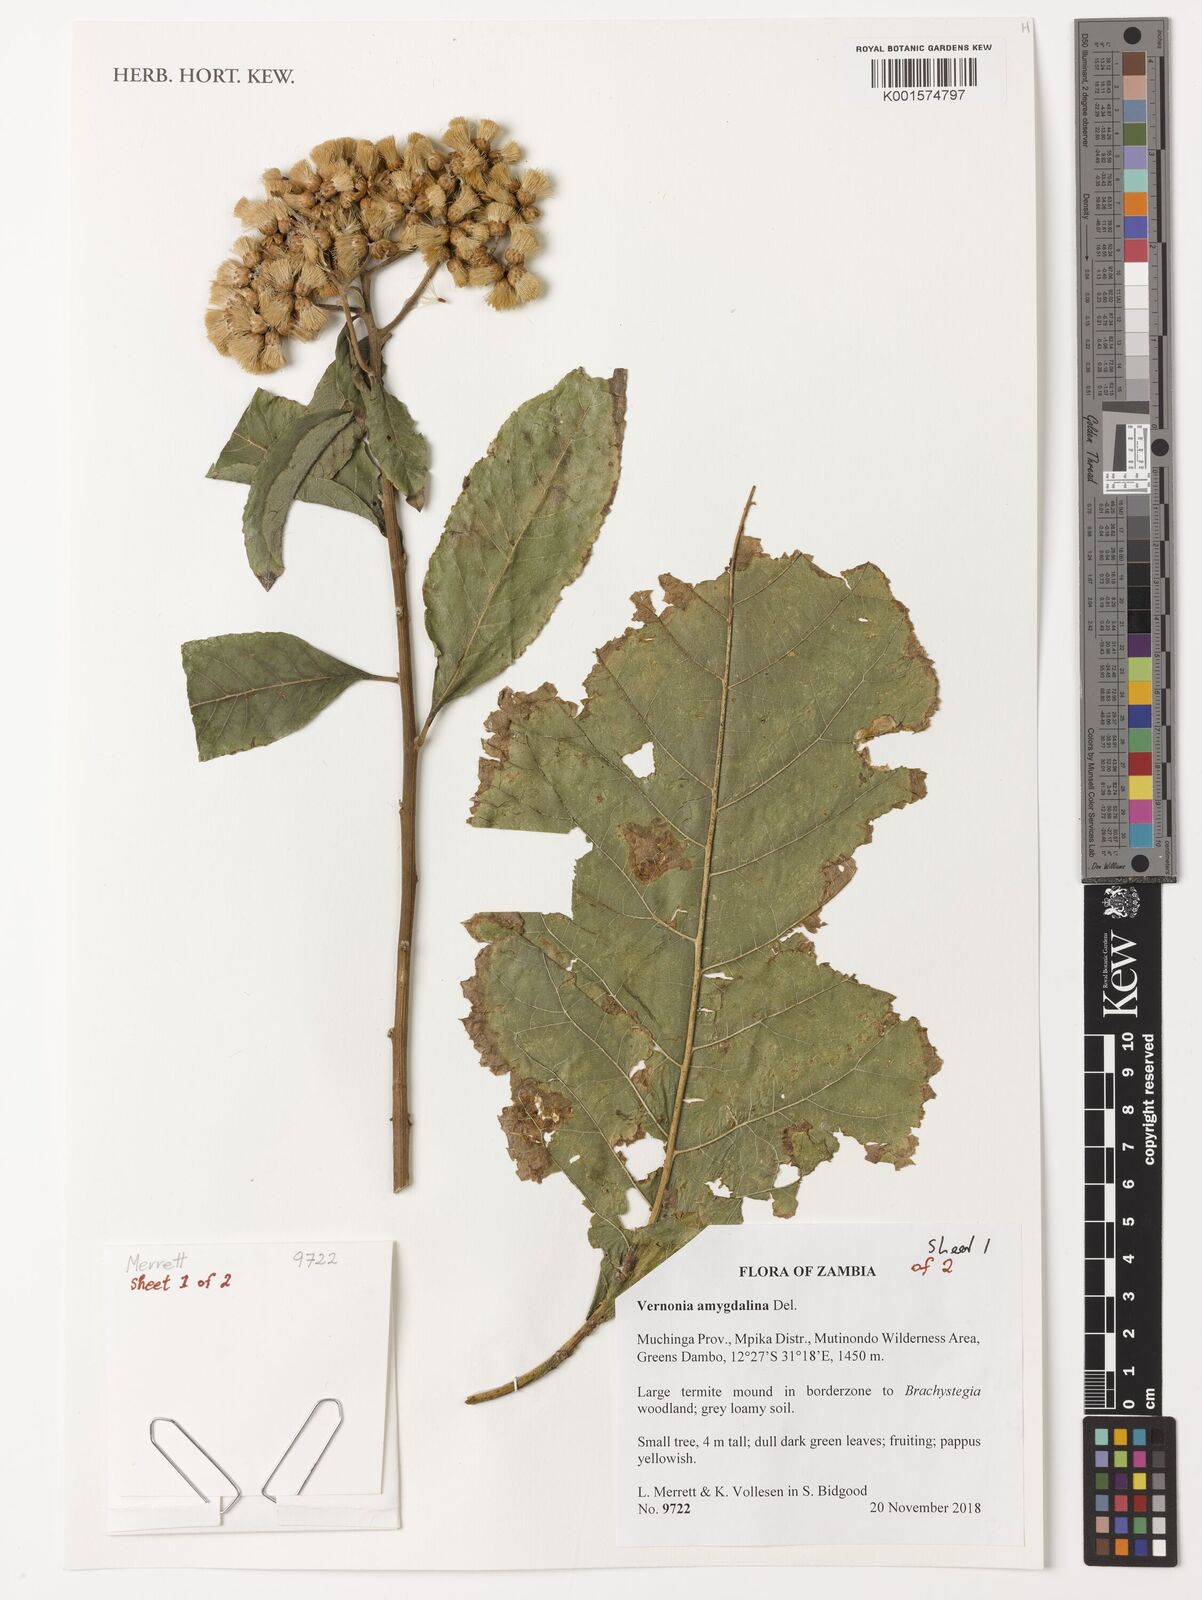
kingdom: Plantae
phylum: Tracheophyta
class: Magnoliopsida
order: Asterales
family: Asteraceae
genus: Gymnanthemum
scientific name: Gymnanthemum amygdalinum
